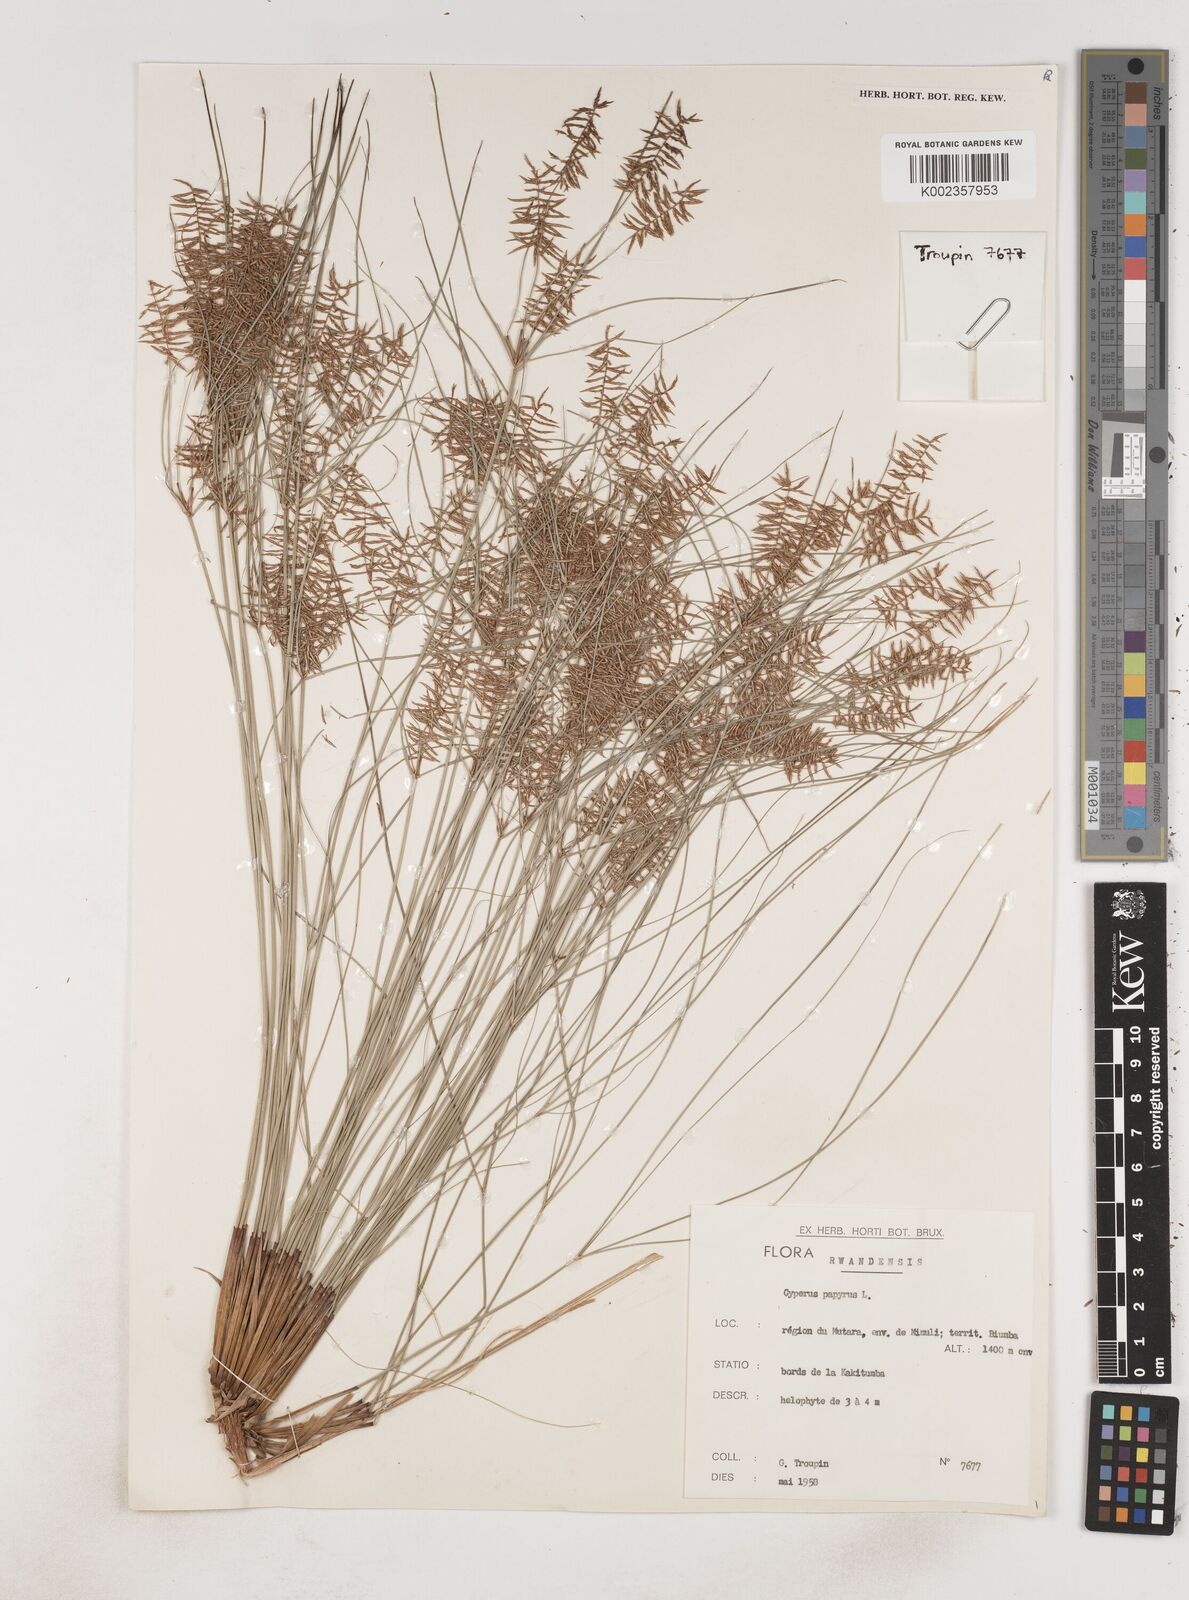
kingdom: Plantae
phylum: Tracheophyta
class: Liliopsida
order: Poales
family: Cyperaceae
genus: Cyperus
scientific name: Cyperus papyrus
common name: Papyrus
